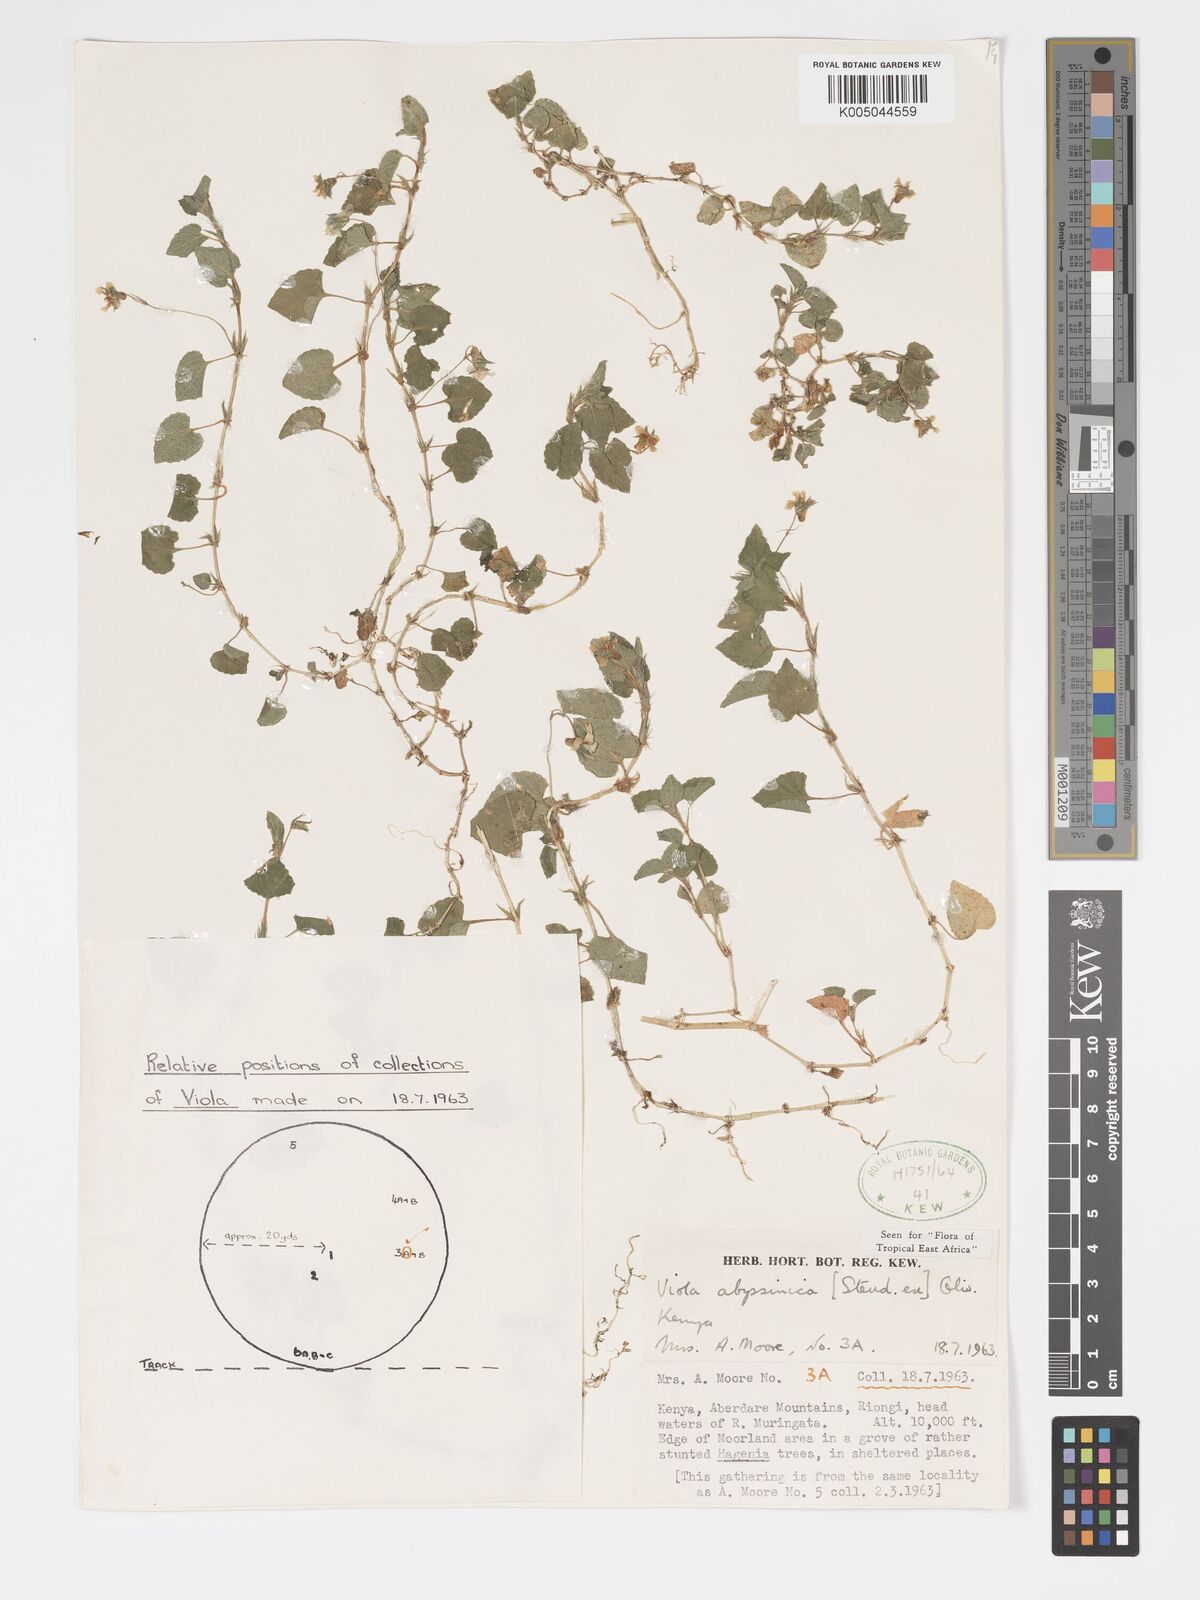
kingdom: Plantae
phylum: Tracheophyta
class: Magnoliopsida
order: Malpighiales
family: Violaceae
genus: Viola
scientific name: Viola abyssinica
